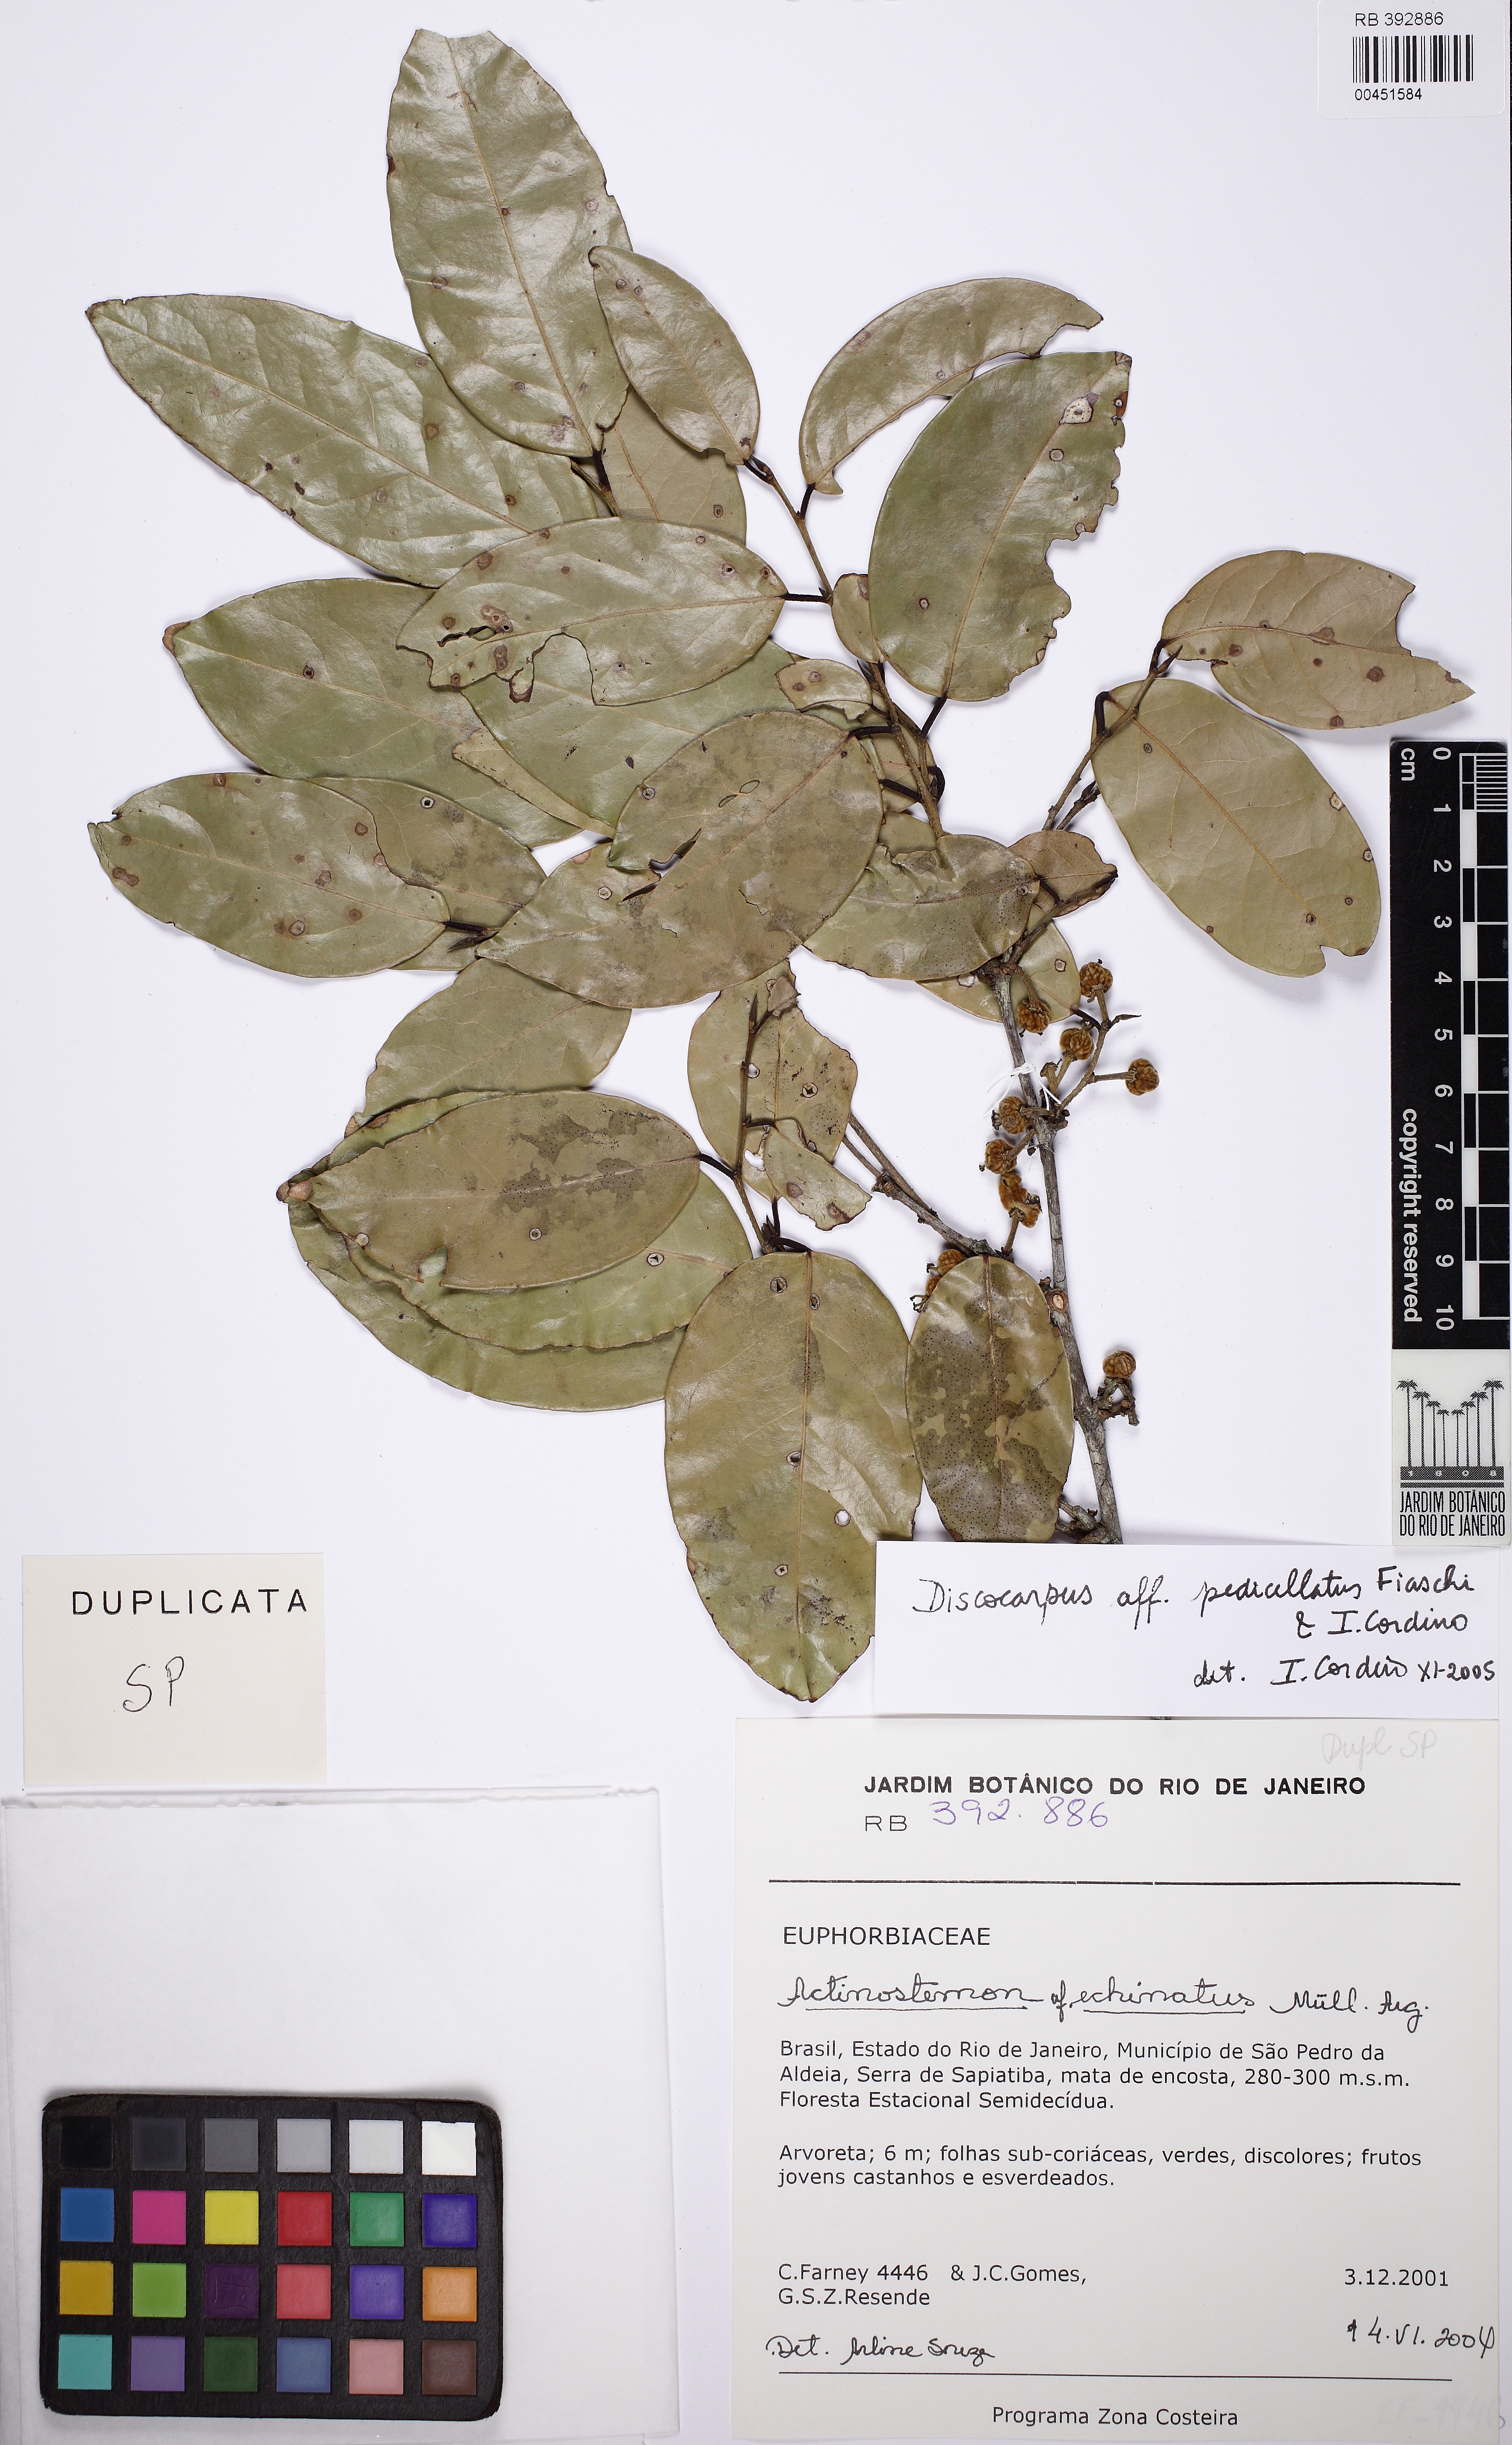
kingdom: Plantae
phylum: Tracheophyta
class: Magnoliopsida
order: Malpighiales
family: Phyllanthaceae
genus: Discocarpus
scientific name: Discocarpus pedicellatus
